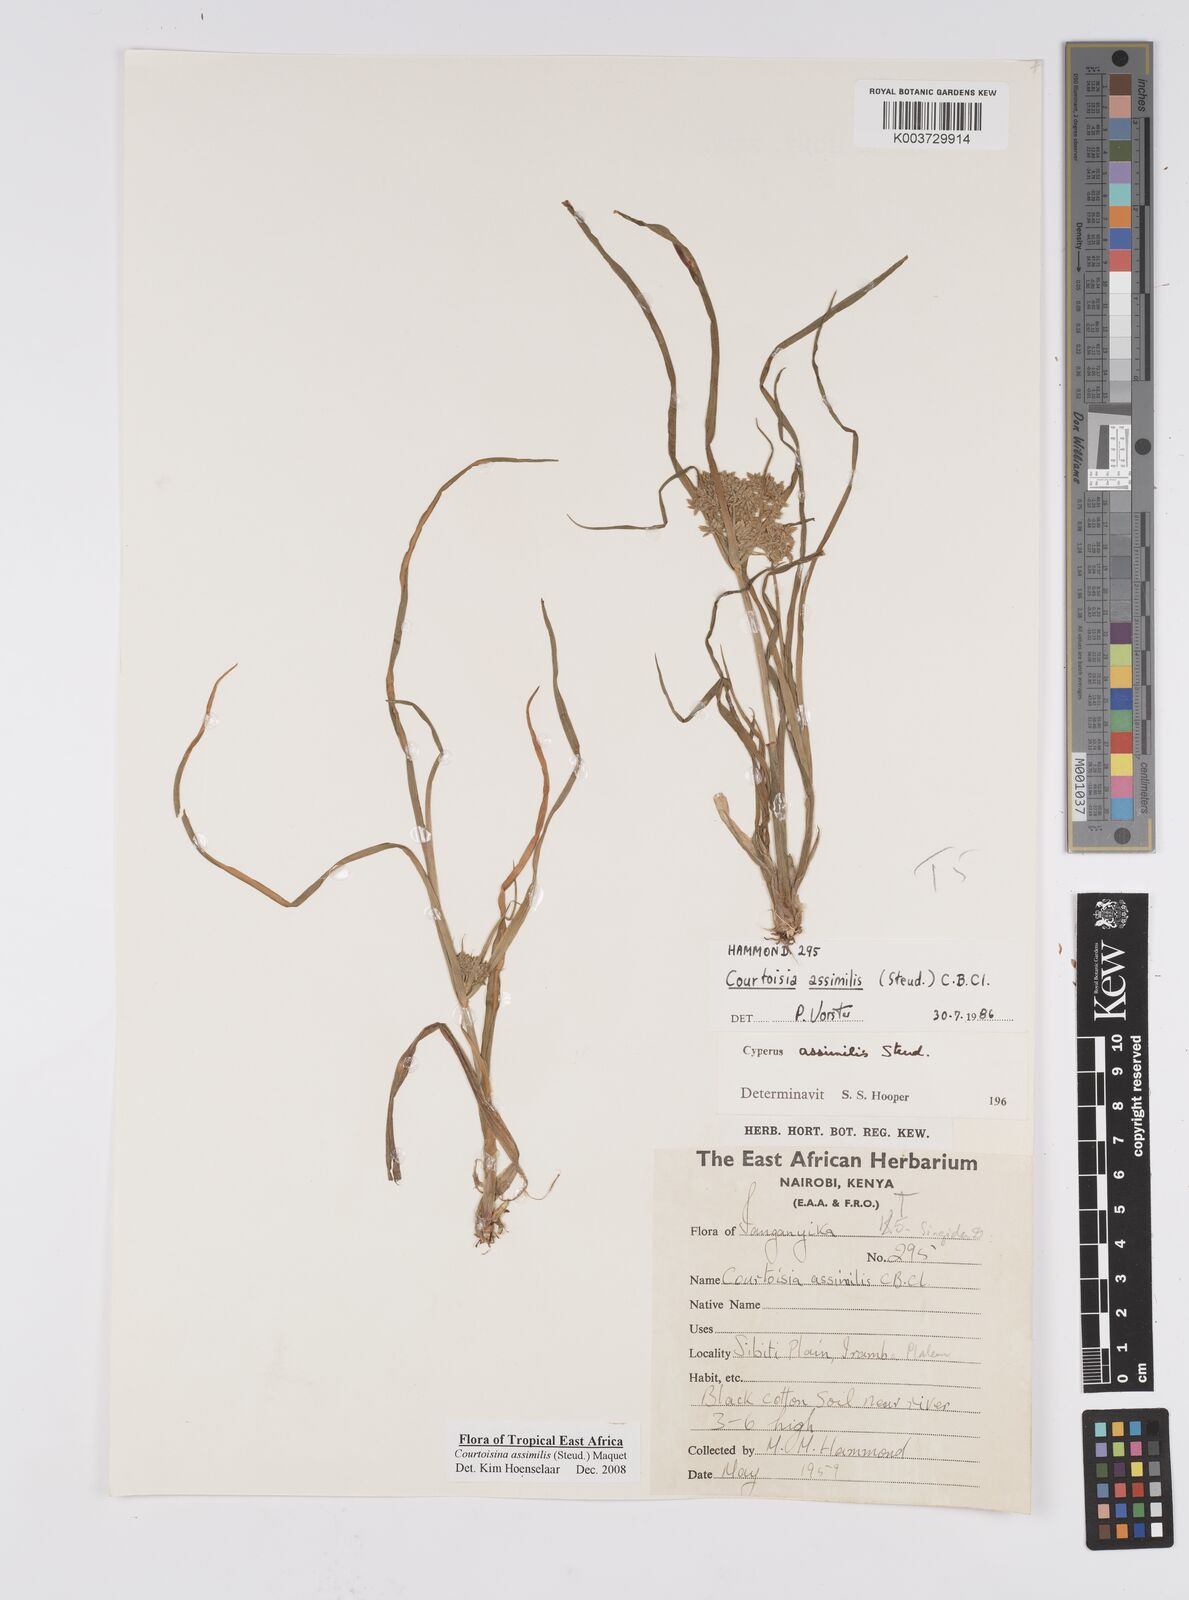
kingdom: Plantae
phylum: Tracheophyta
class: Liliopsida
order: Poales
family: Cyperaceae
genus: Cyperus
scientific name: Cyperus assimilis
